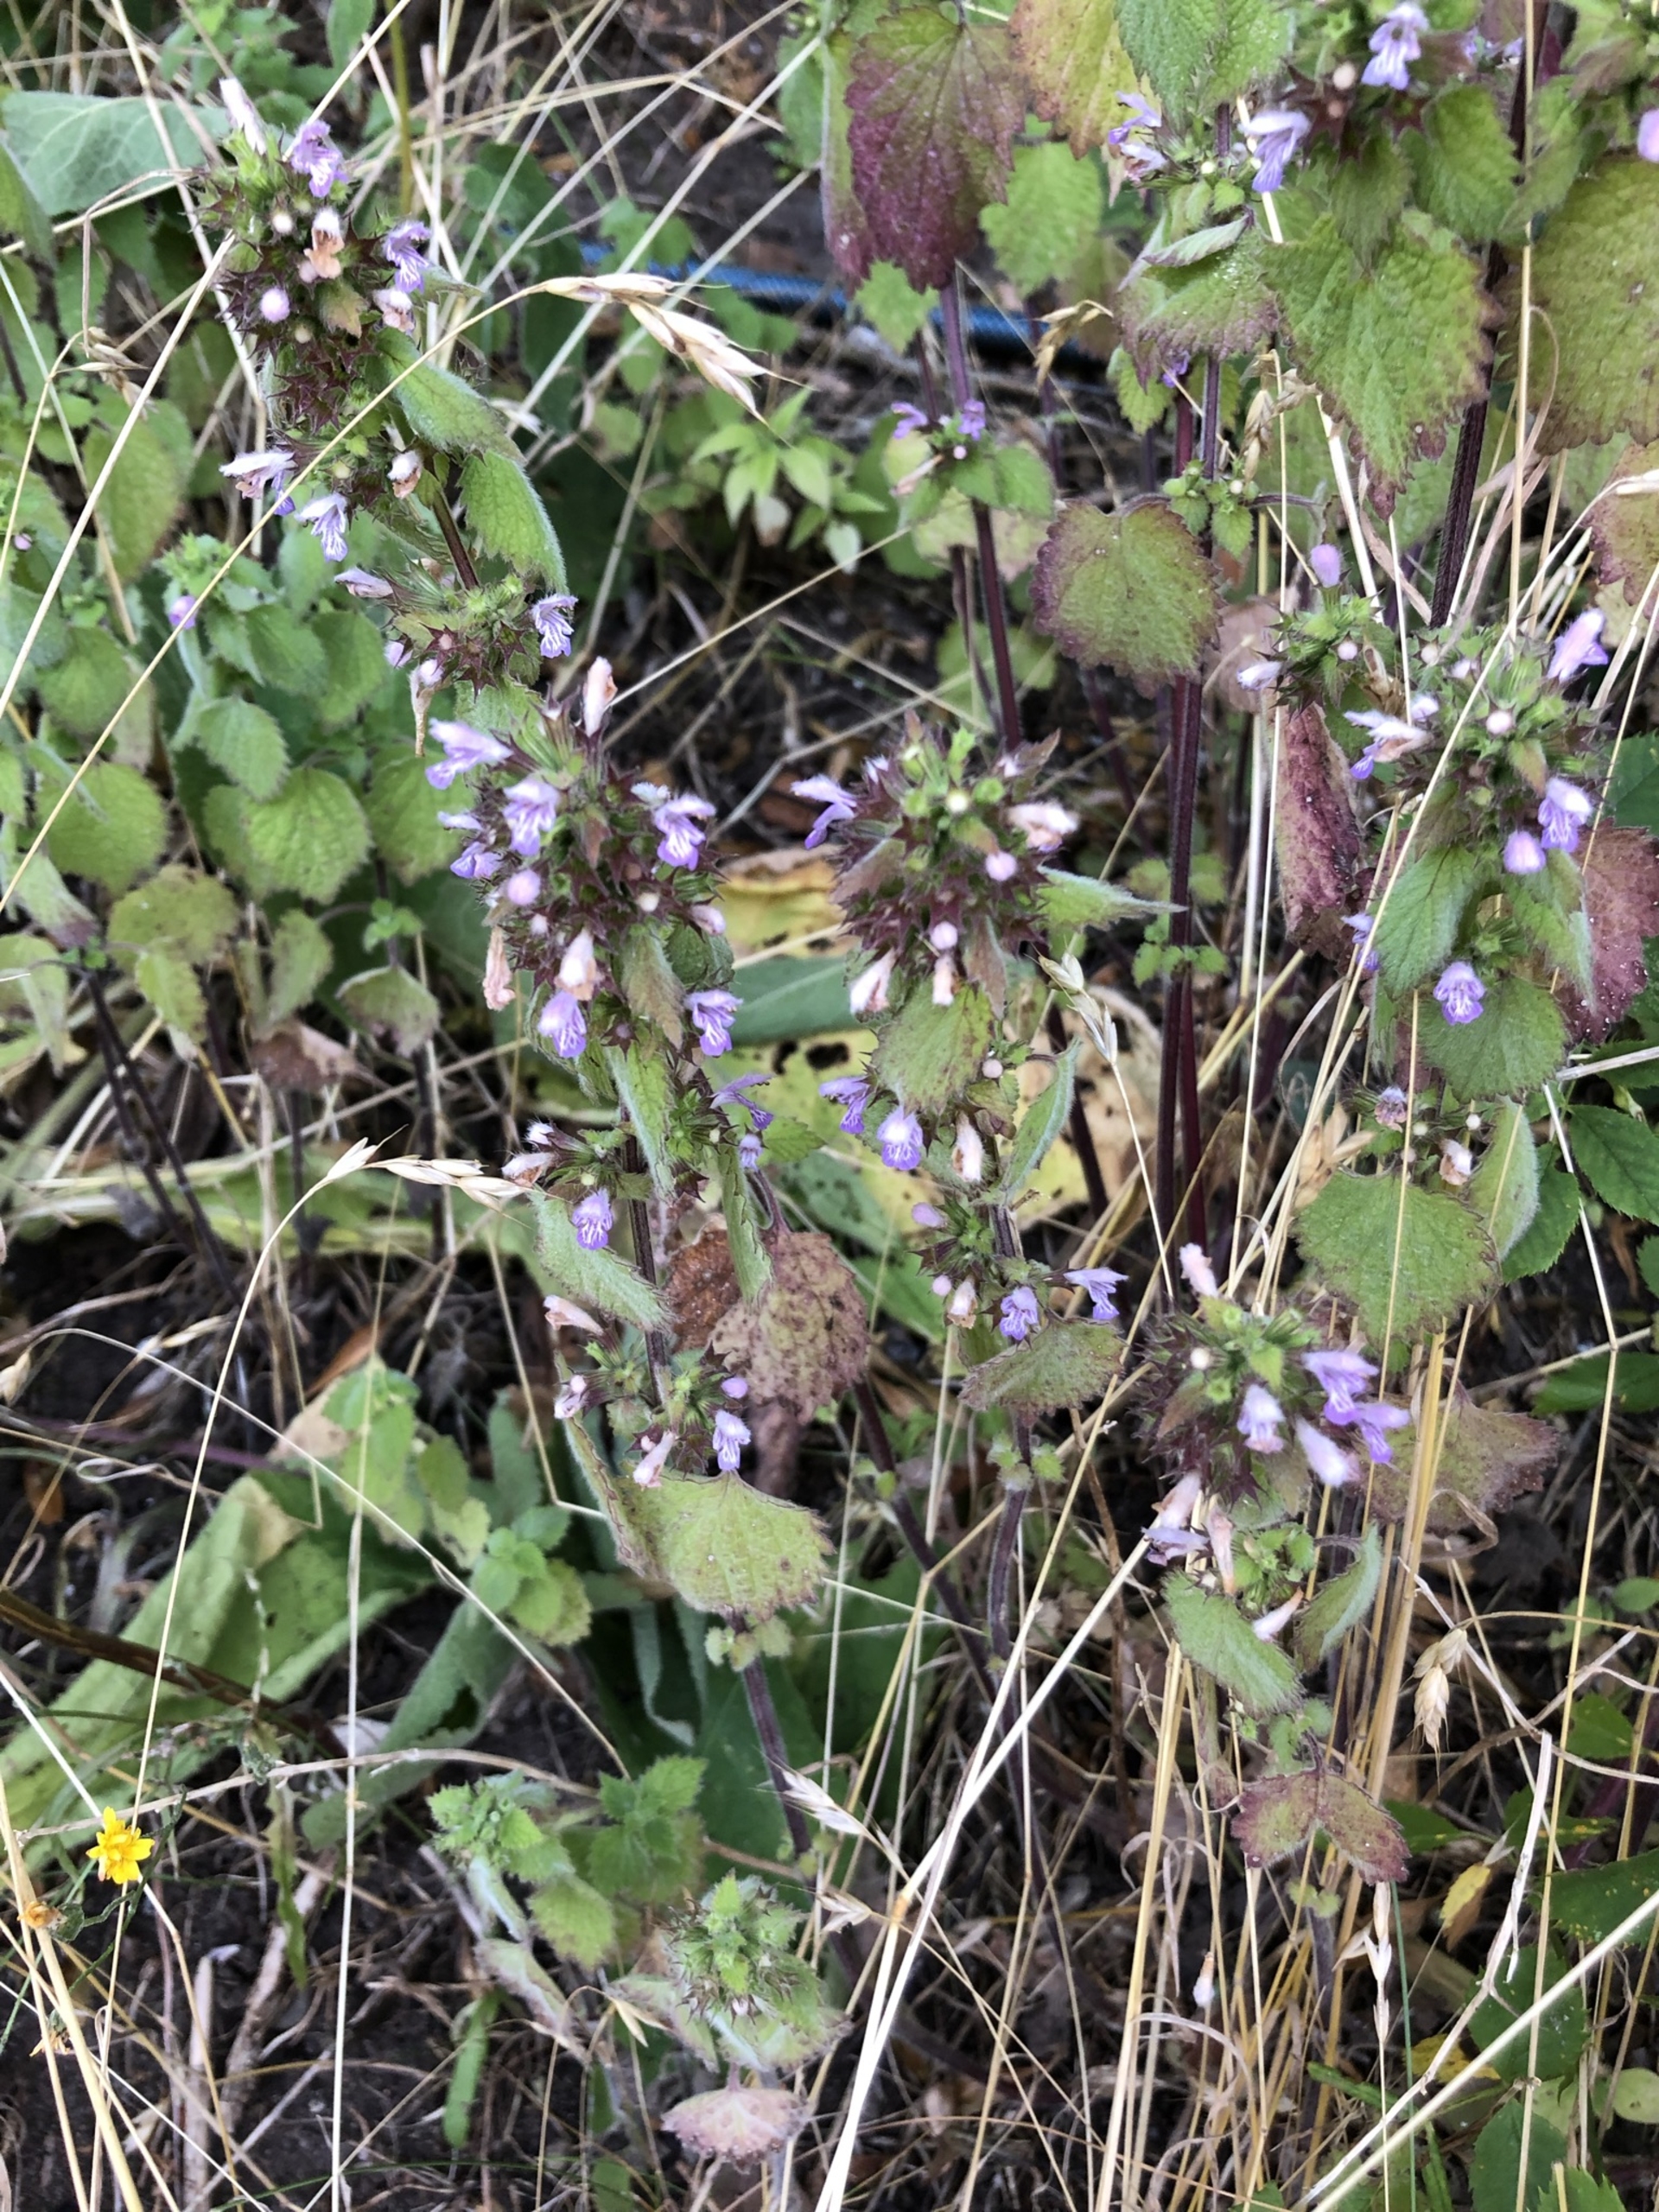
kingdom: Plantae
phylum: Tracheophyta
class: Magnoliopsida
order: Lamiales
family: Lamiaceae
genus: Ballota
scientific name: Ballota nigra
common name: Tandbæger
